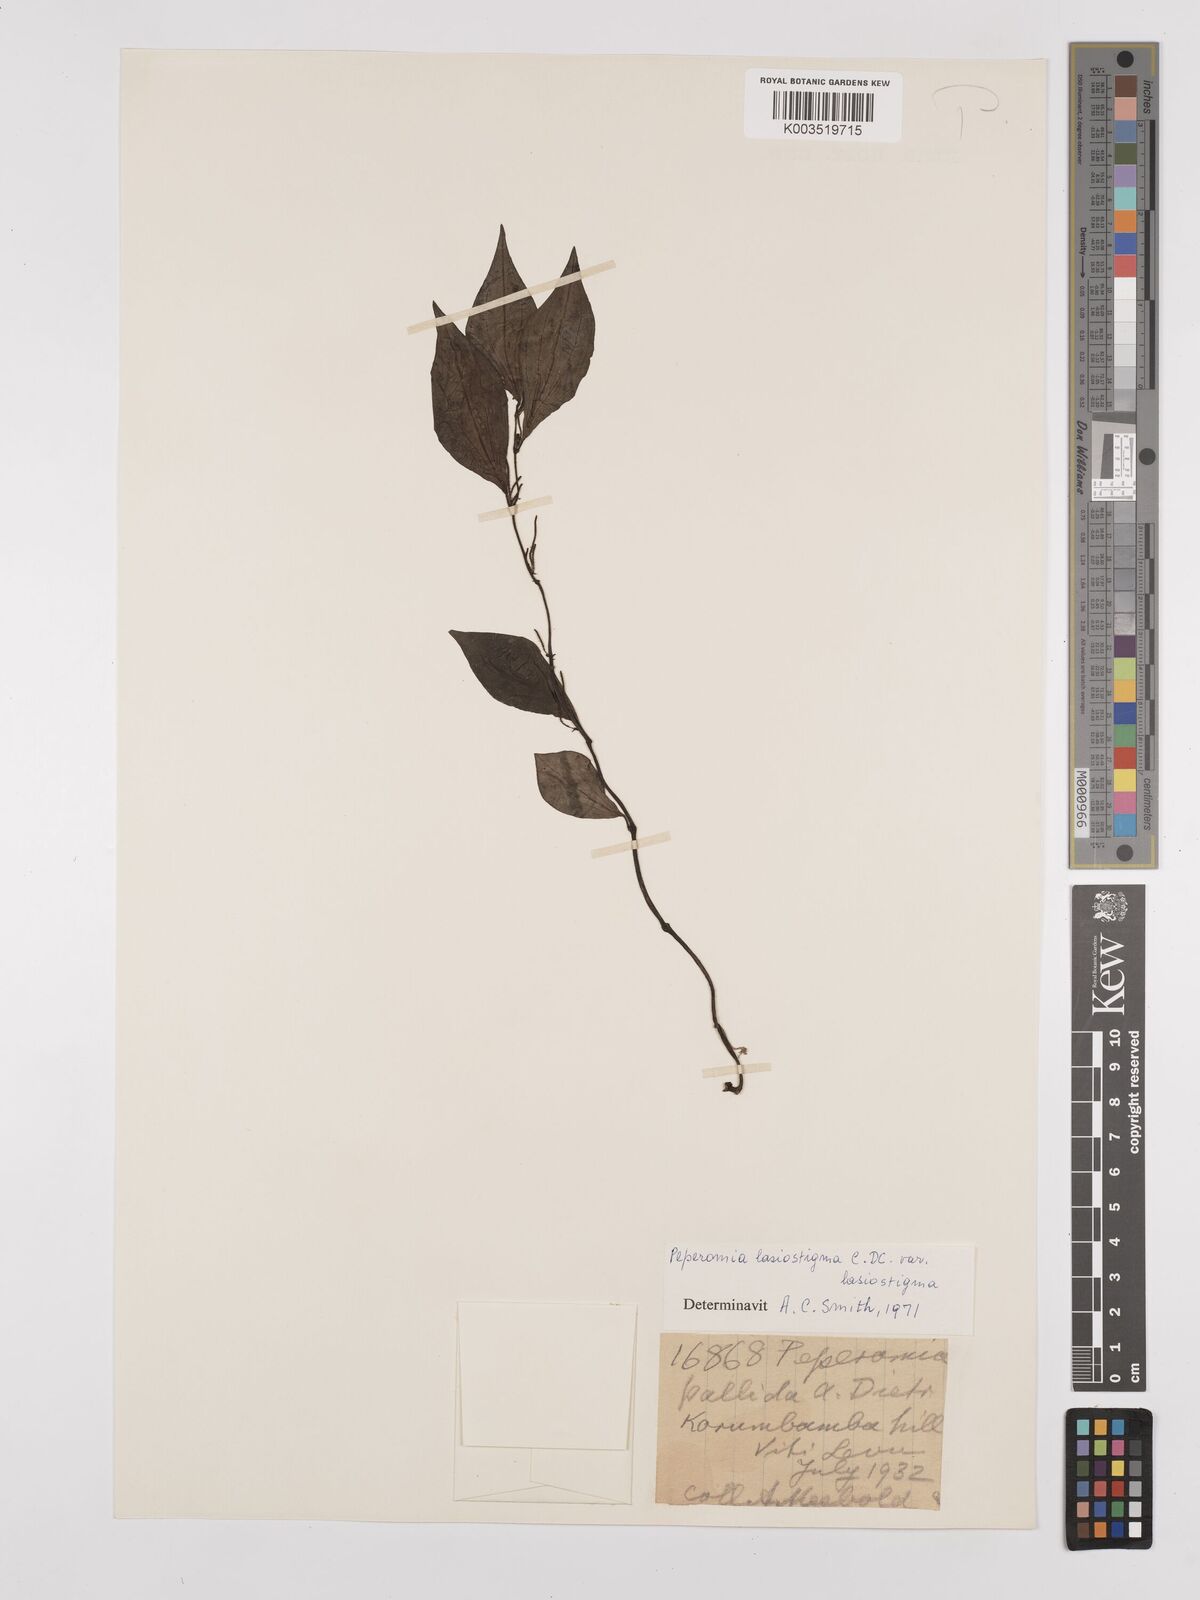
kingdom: Plantae
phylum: Tracheophyta
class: Magnoliopsida
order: Piperales
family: Piperaceae
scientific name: Piperaceae
